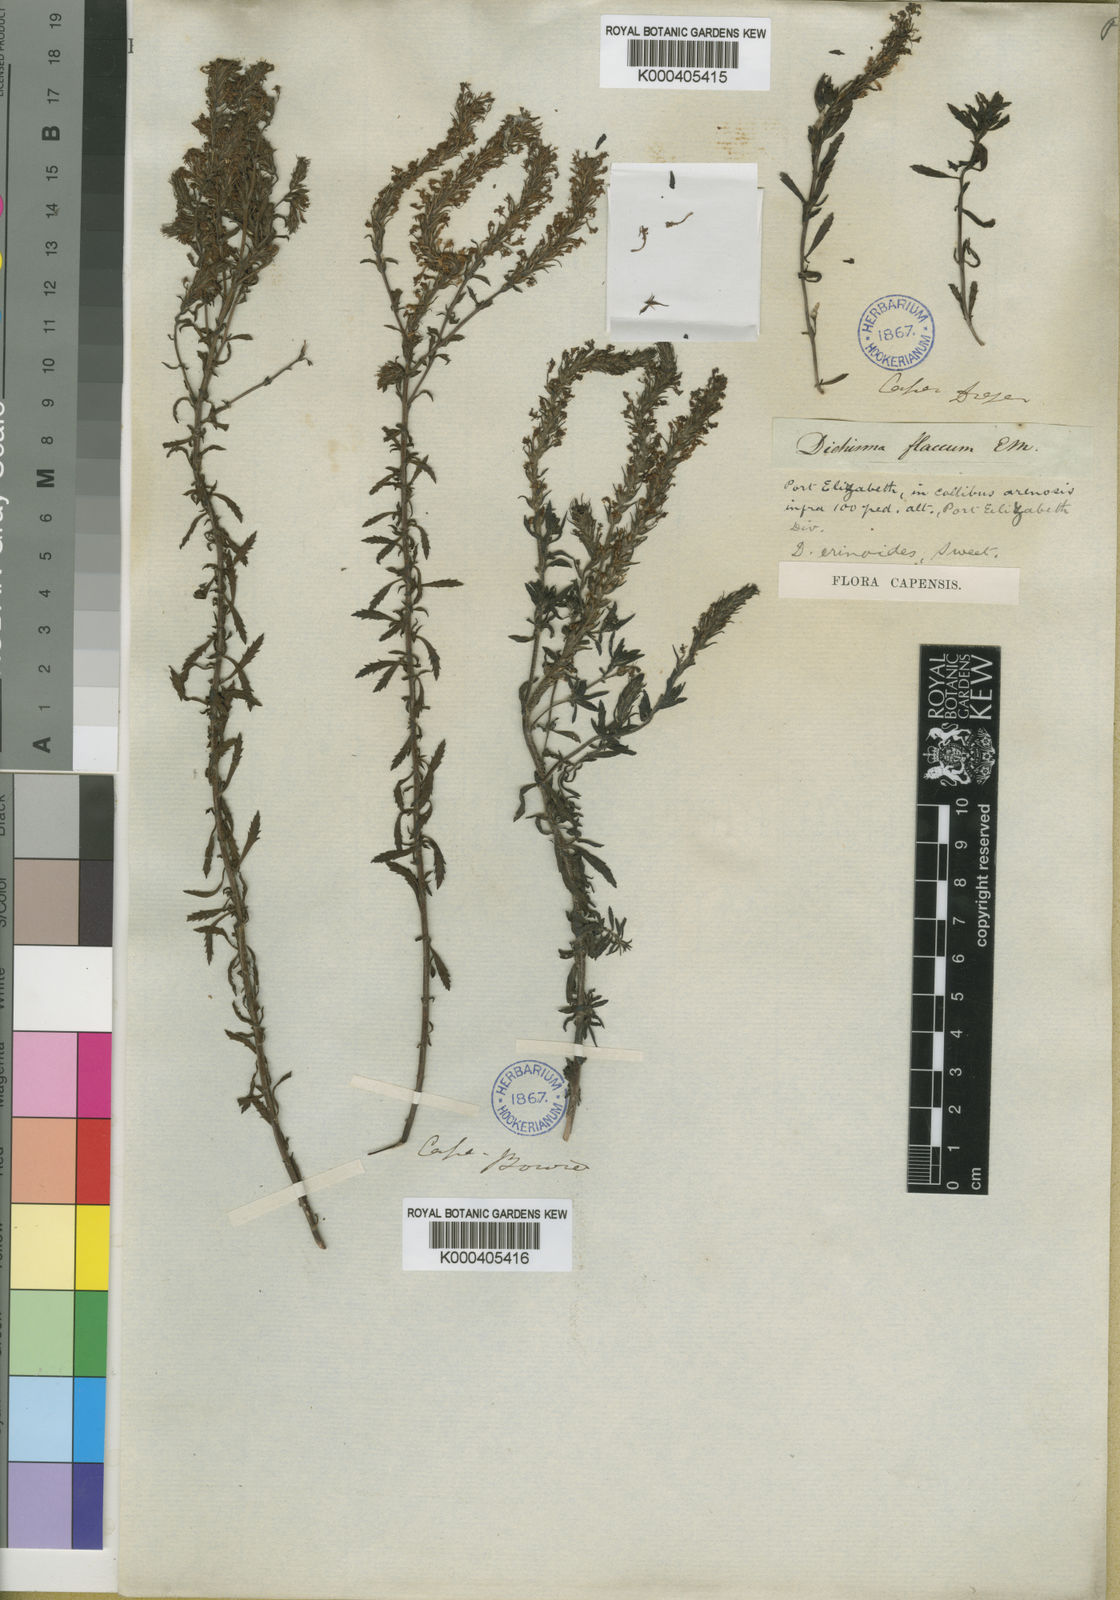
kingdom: Plantae
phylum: Tracheophyta
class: Magnoliopsida
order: Lamiales
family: Scrophulariaceae
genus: Dischisma
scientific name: Dischisma ciliatum
